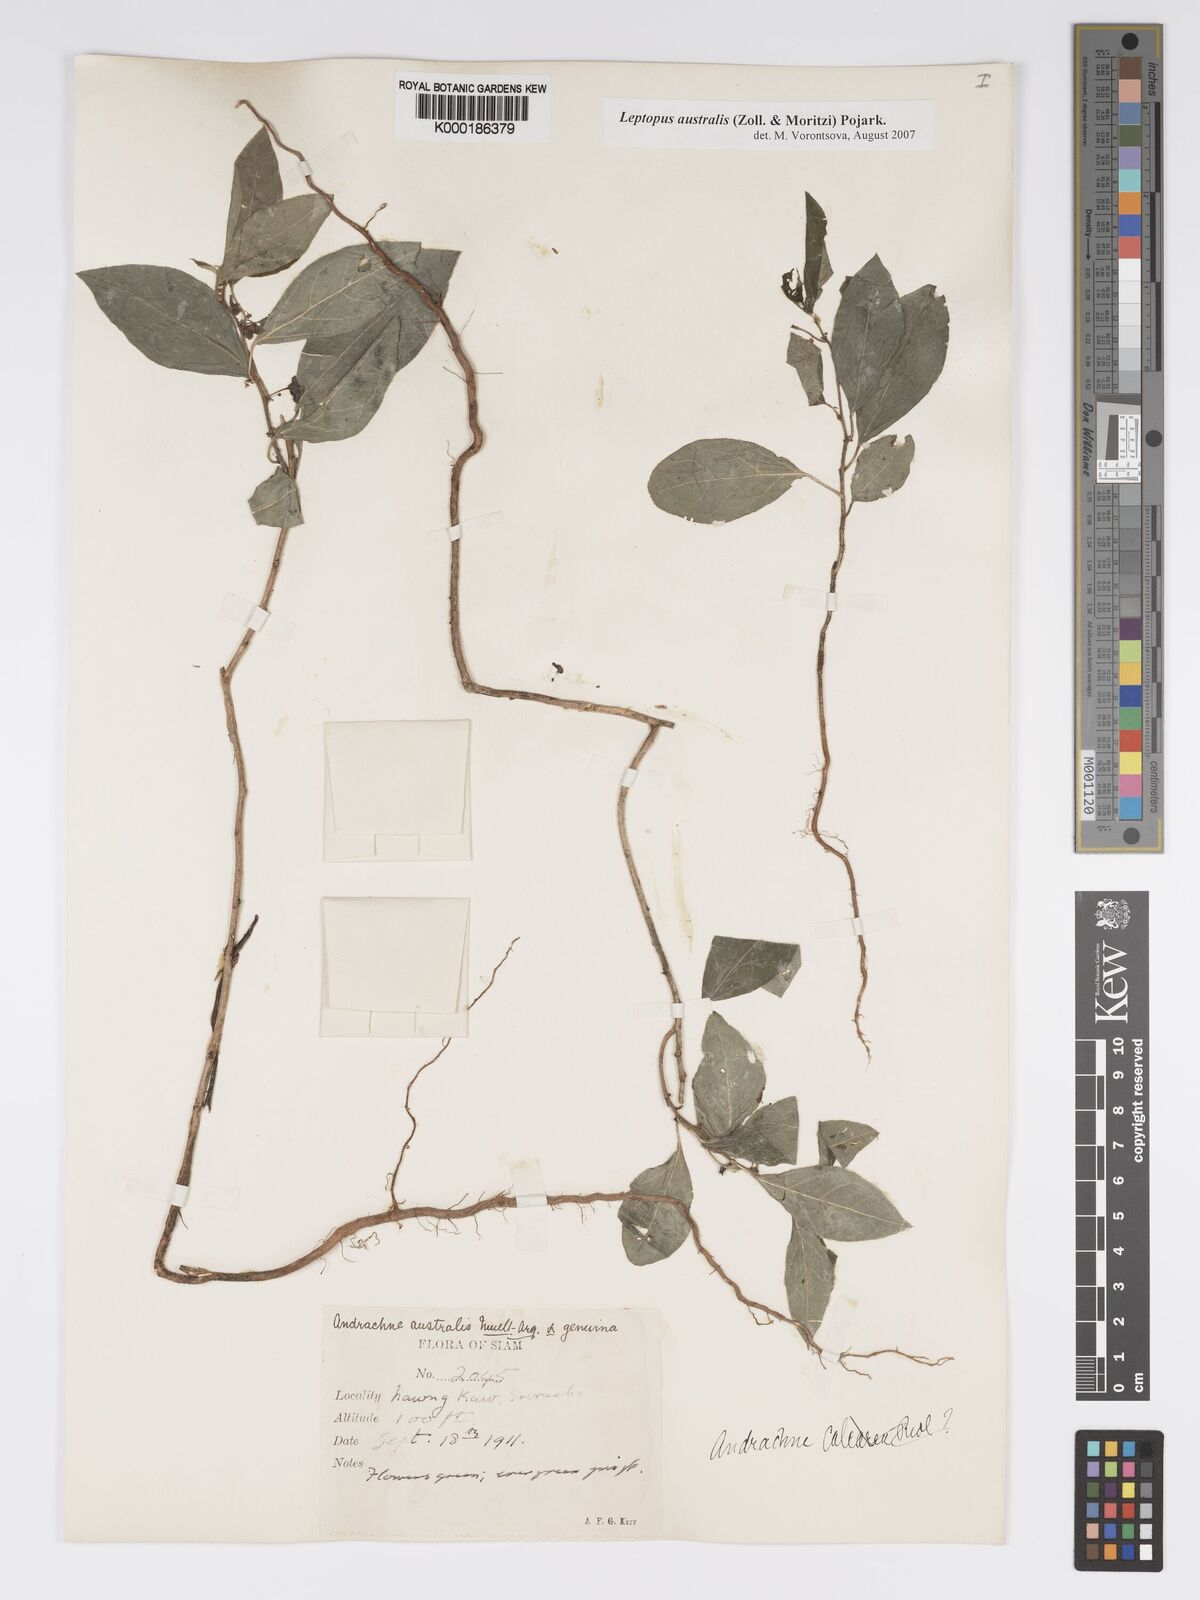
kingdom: Plantae
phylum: Tracheophyta
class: Magnoliopsida
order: Malpighiales
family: Phyllanthaceae
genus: Andrachne
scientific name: Andrachne
